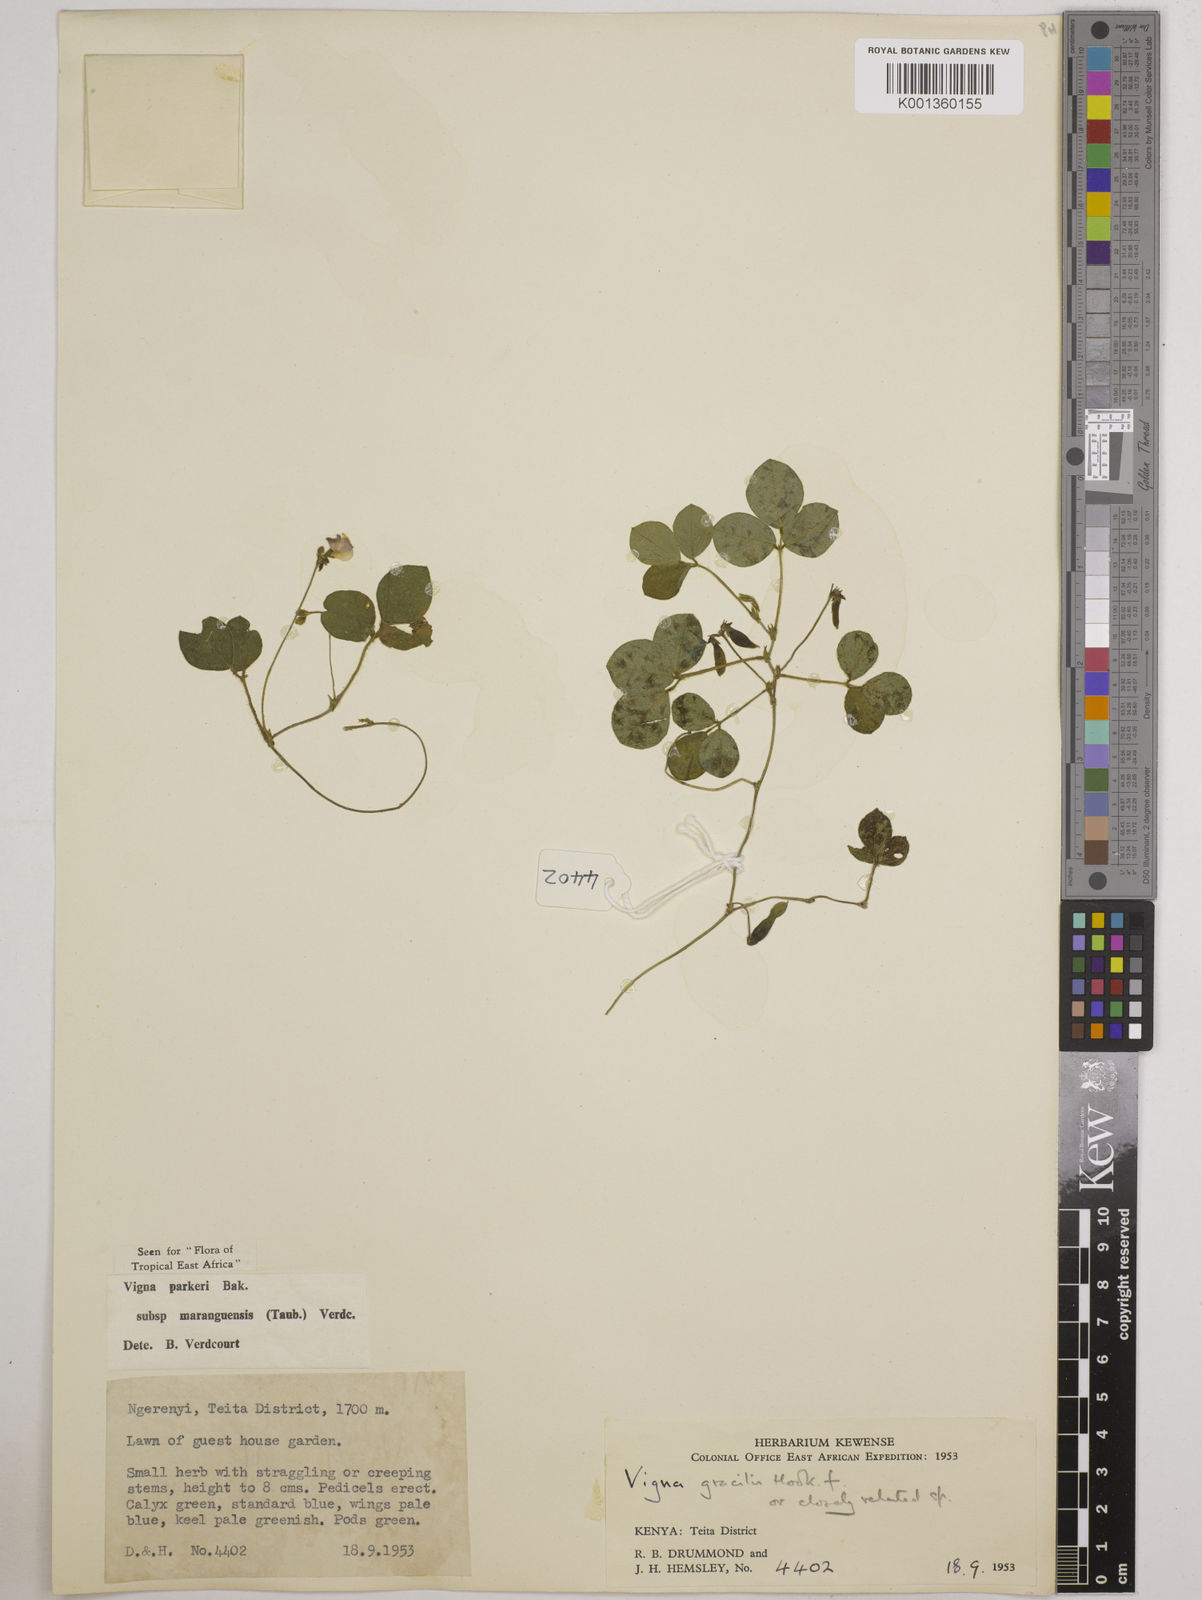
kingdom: Plantae
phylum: Tracheophyta
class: Magnoliopsida
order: Fabales
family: Fabaceae
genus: Vigna
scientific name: Vigna
